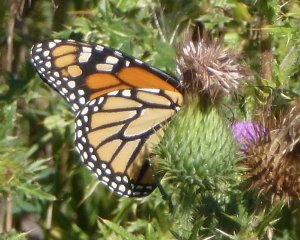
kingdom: Animalia
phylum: Arthropoda
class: Insecta
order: Lepidoptera
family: Nymphalidae
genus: Danaus
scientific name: Danaus plexippus
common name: Monarch
